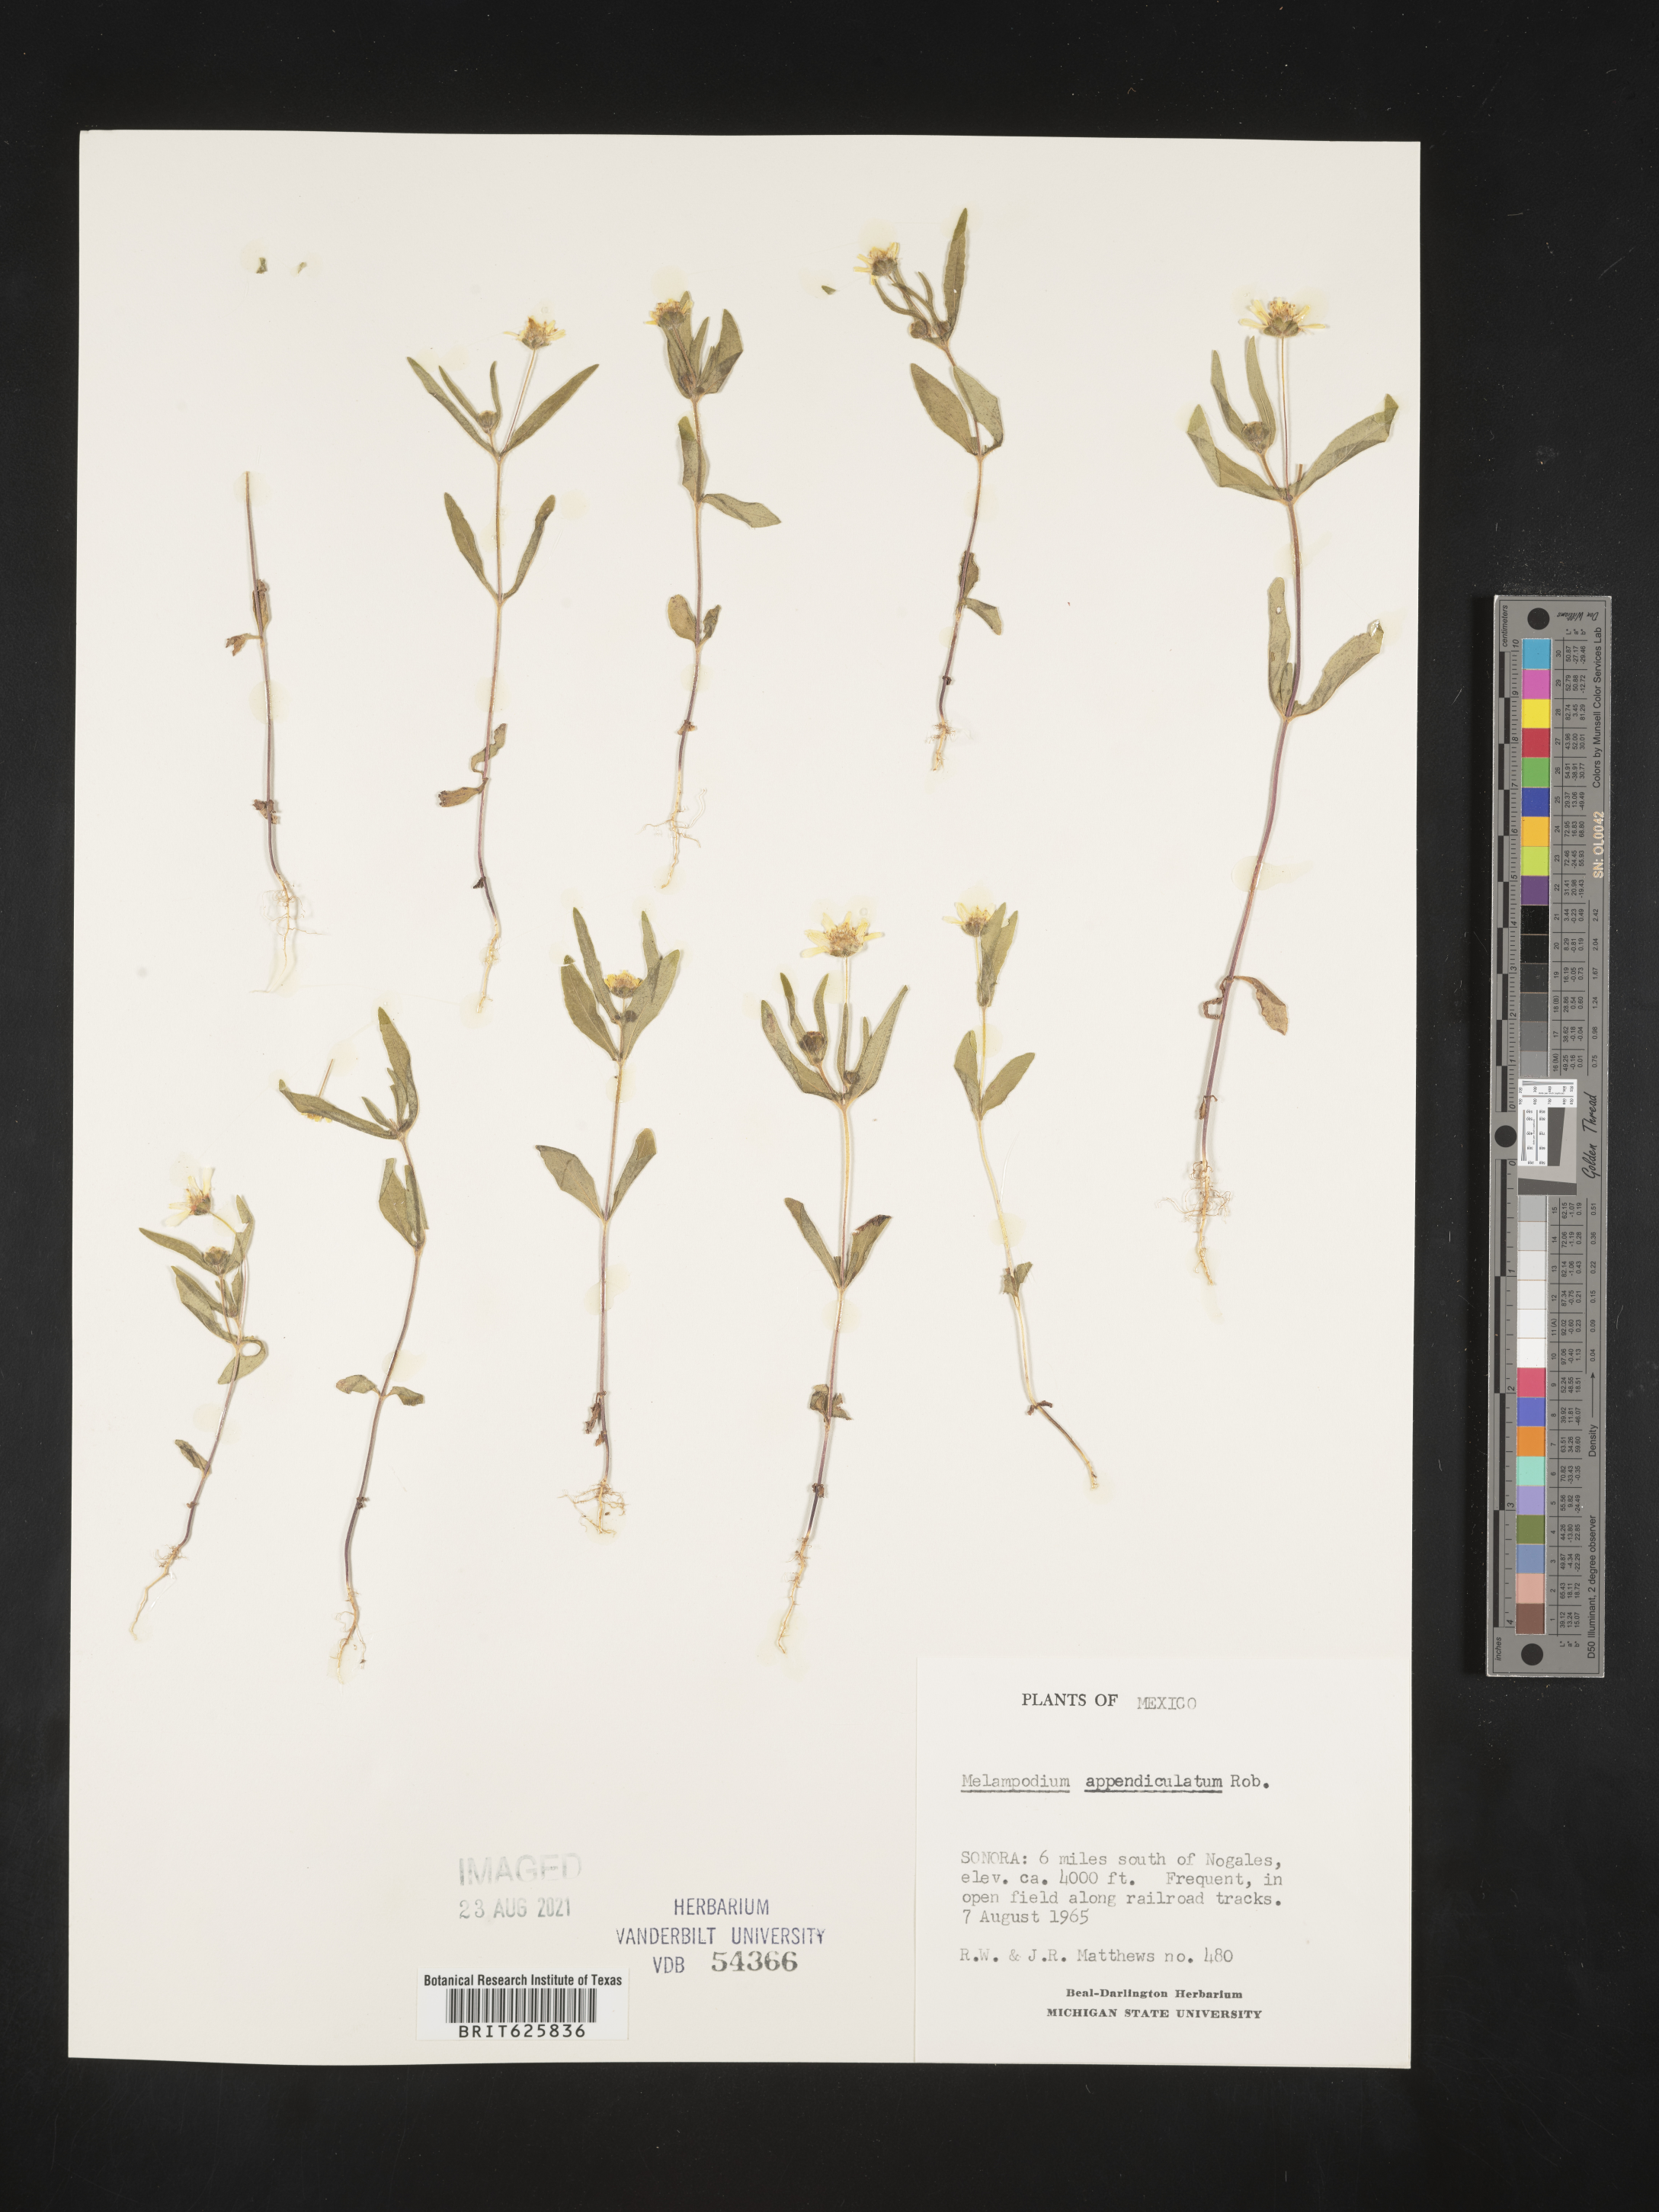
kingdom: Plantae
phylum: Tracheophyta
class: Magnoliopsida
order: Asterales
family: Asteraceae
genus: Melampodium
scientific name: Melampodium
